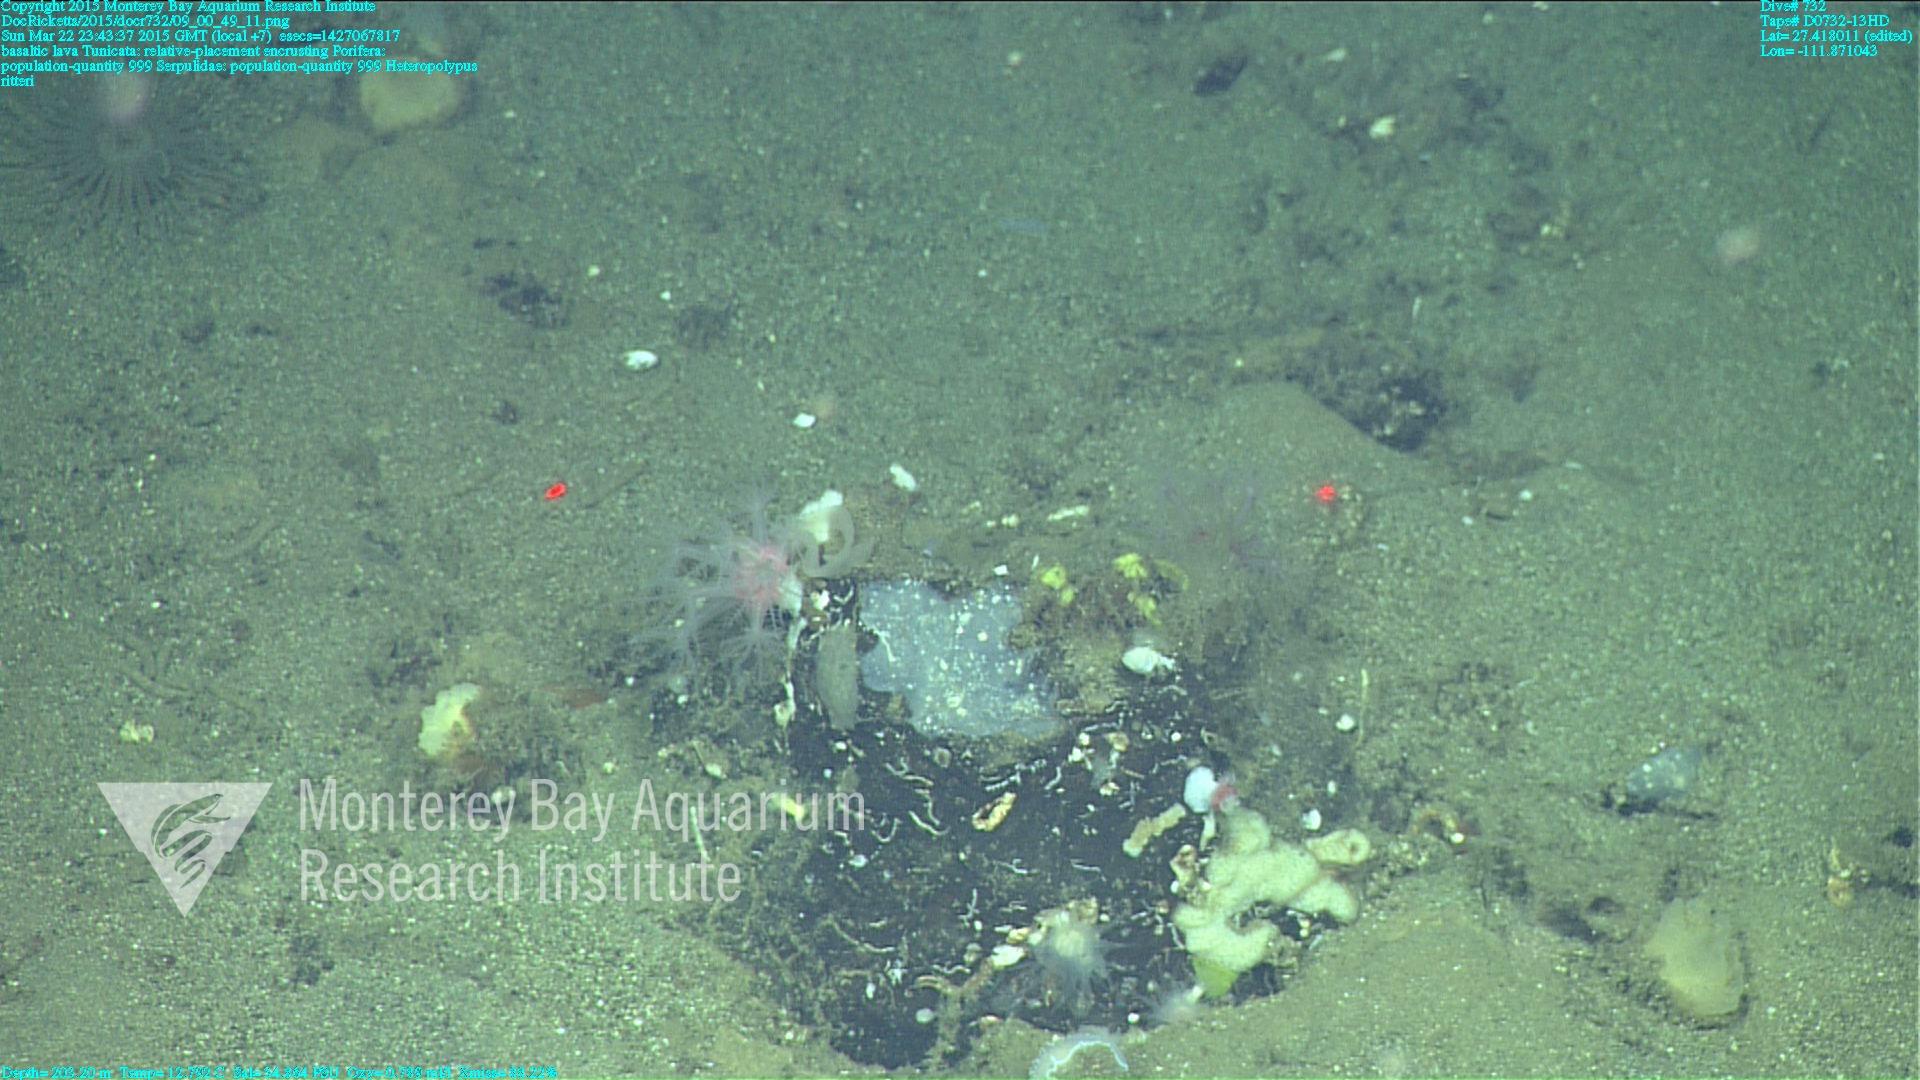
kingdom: Animalia
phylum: Cnidaria
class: Anthozoa
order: Scleralcyonacea
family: Coralliidae
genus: Heteropolypus
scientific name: Heteropolypus ritteri
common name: Ritter's soft coral
